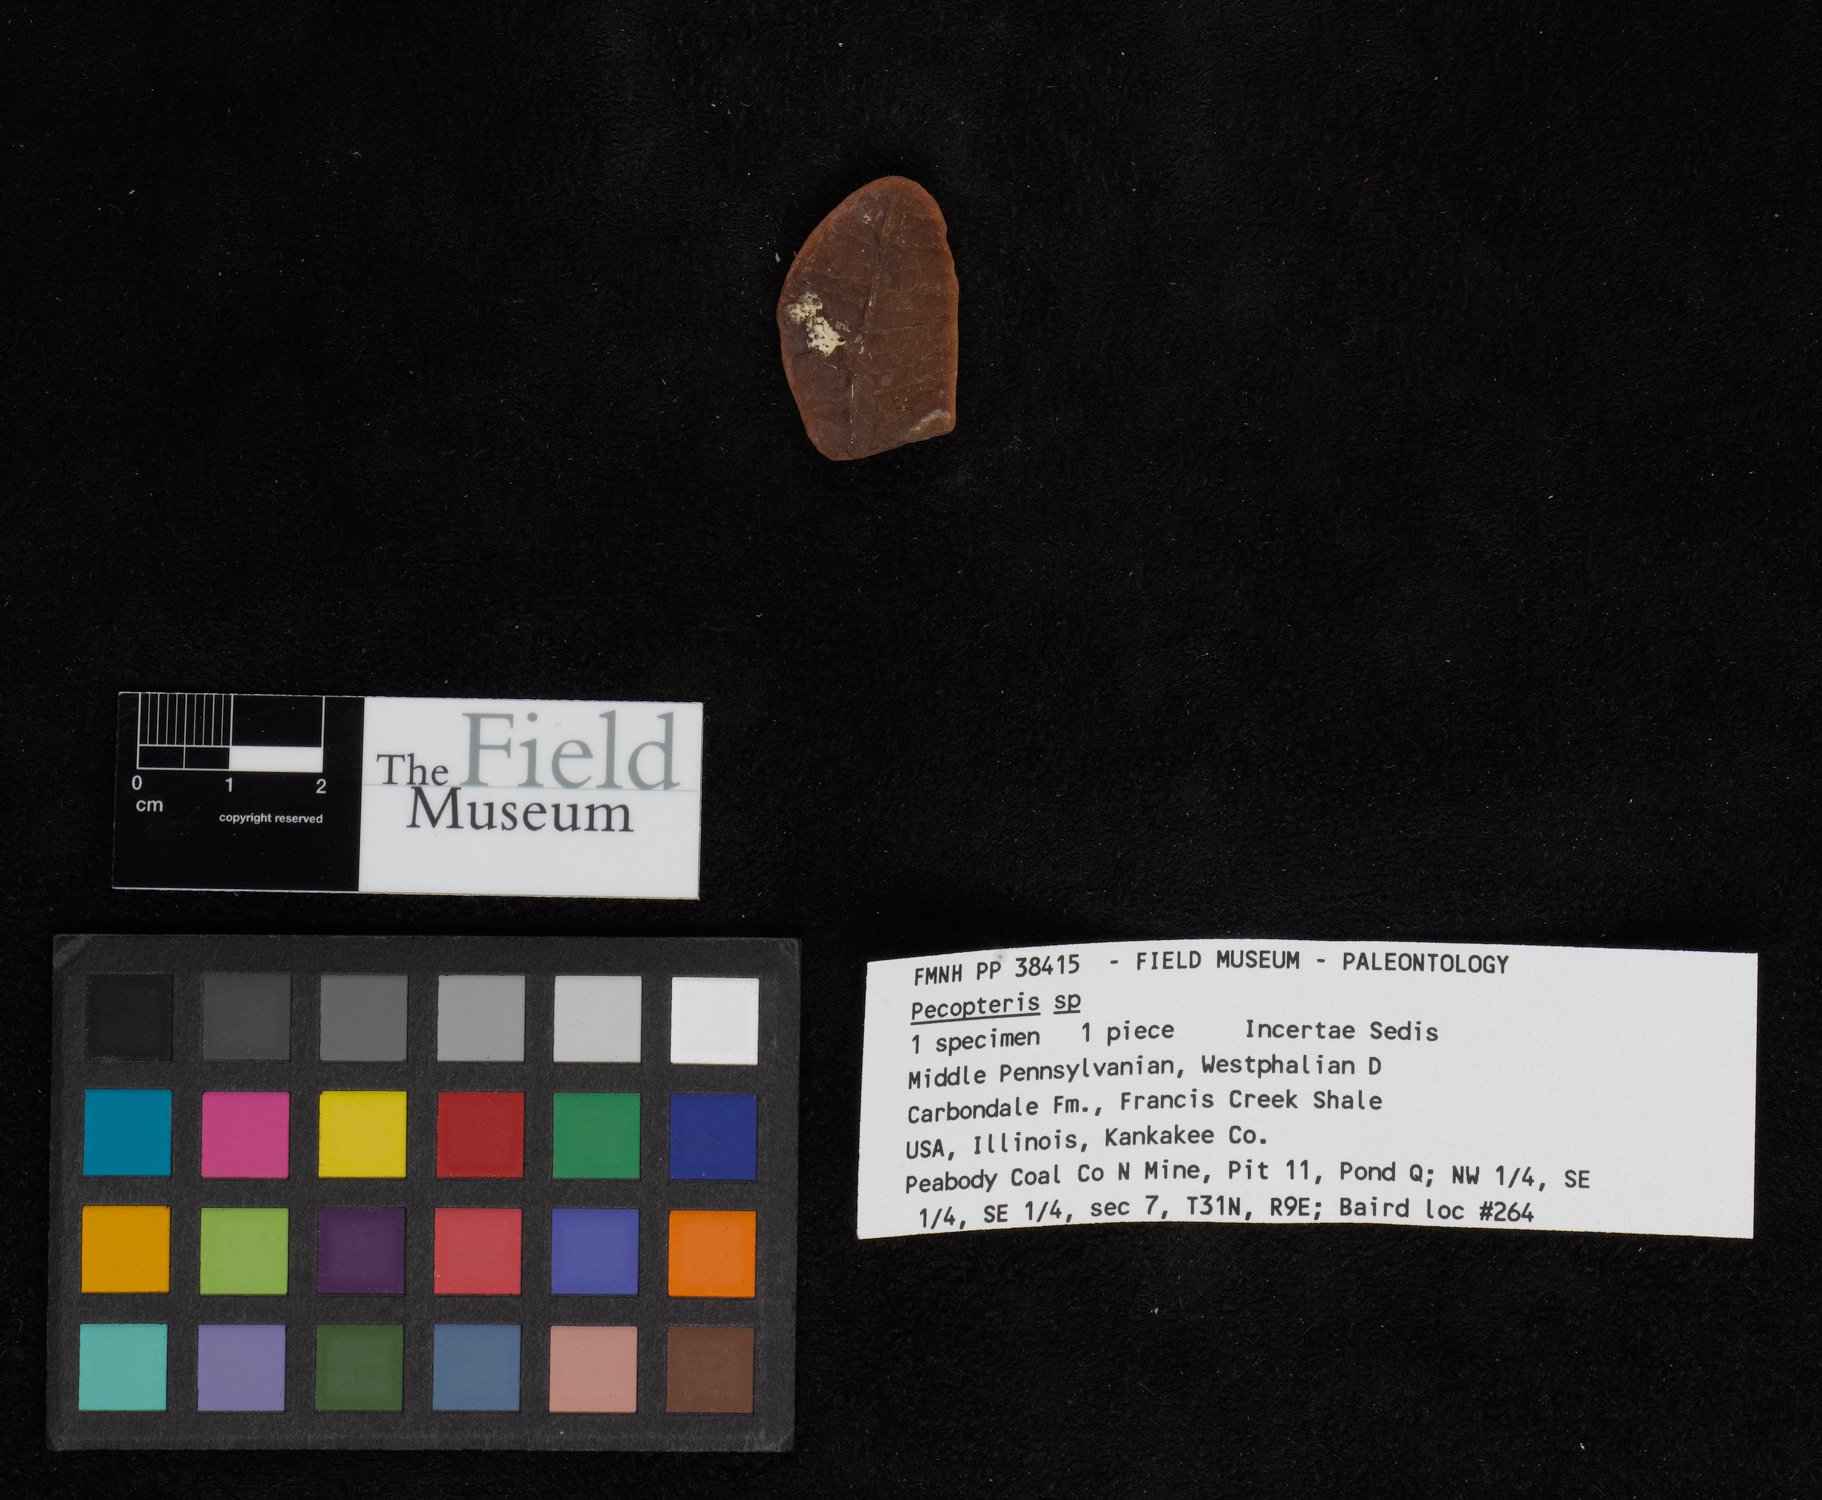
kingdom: Plantae
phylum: Tracheophyta
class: Polypodiopsida
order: Marattiales
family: Asterothecaceae
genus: Pecopteris
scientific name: Pecopteris
